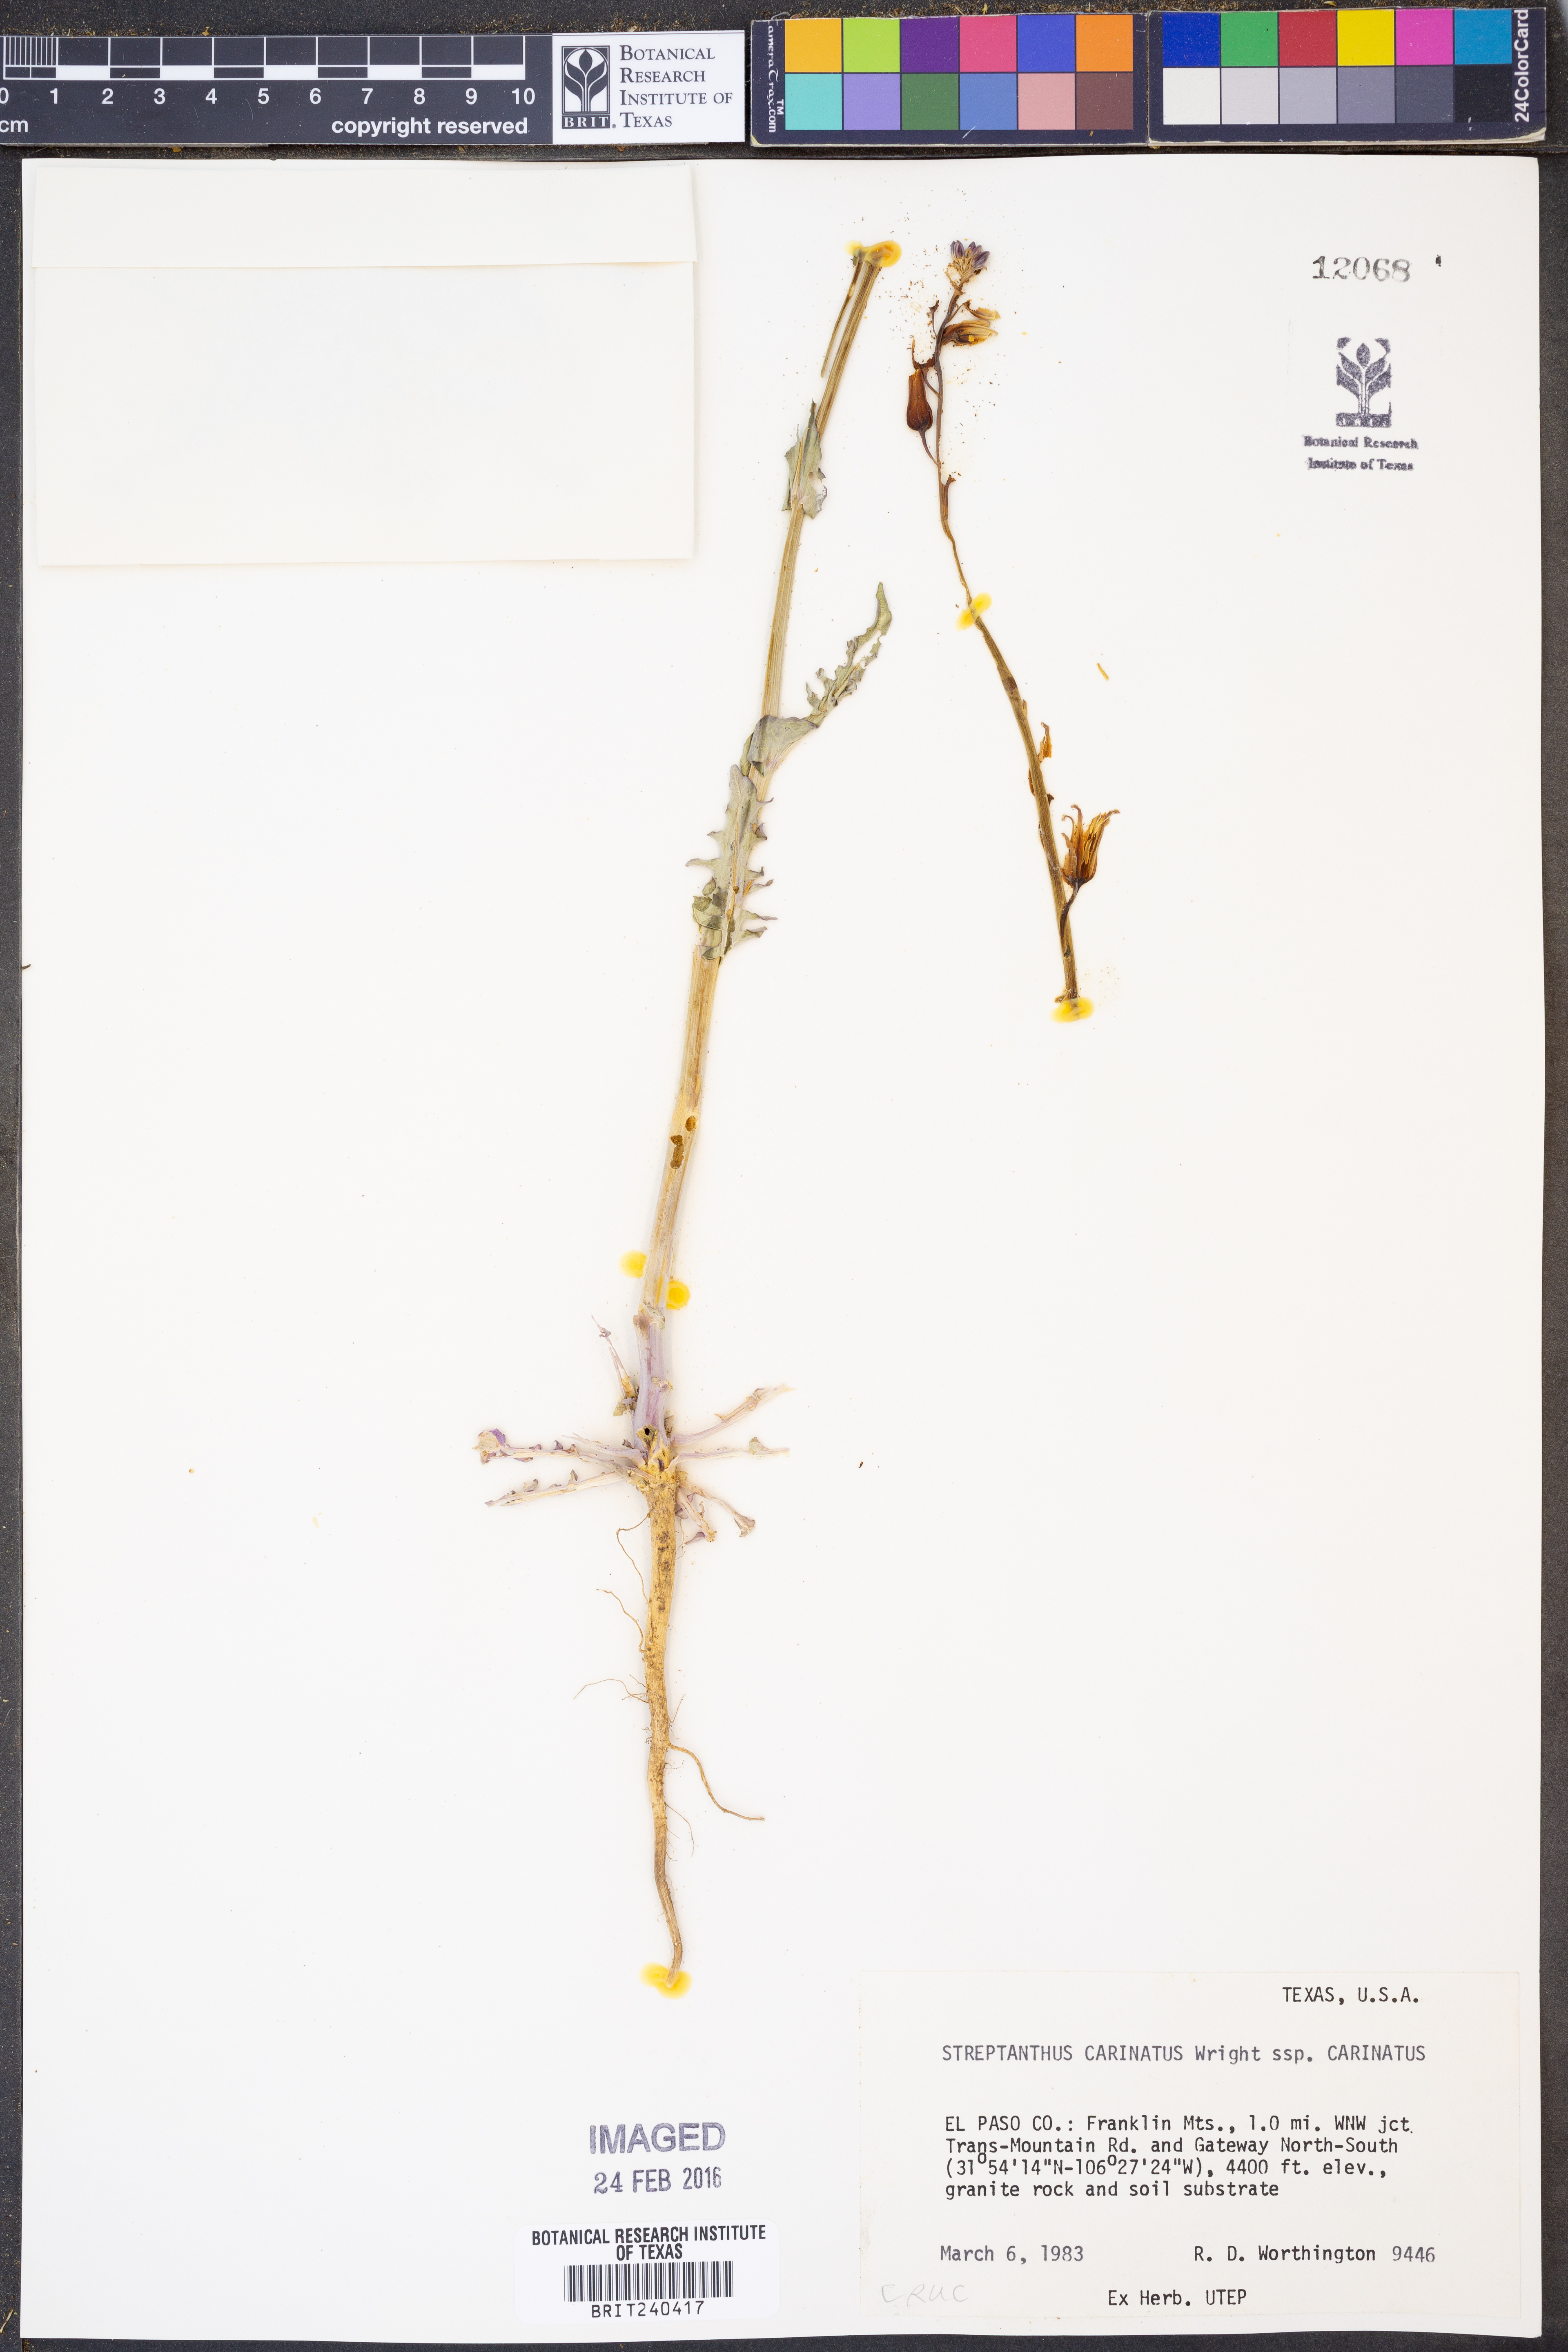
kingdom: Plantae
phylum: Tracheophyta
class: Magnoliopsida
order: Brassicales
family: Brassicaceae
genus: Streptanthus
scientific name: Streptanthus carinatus
